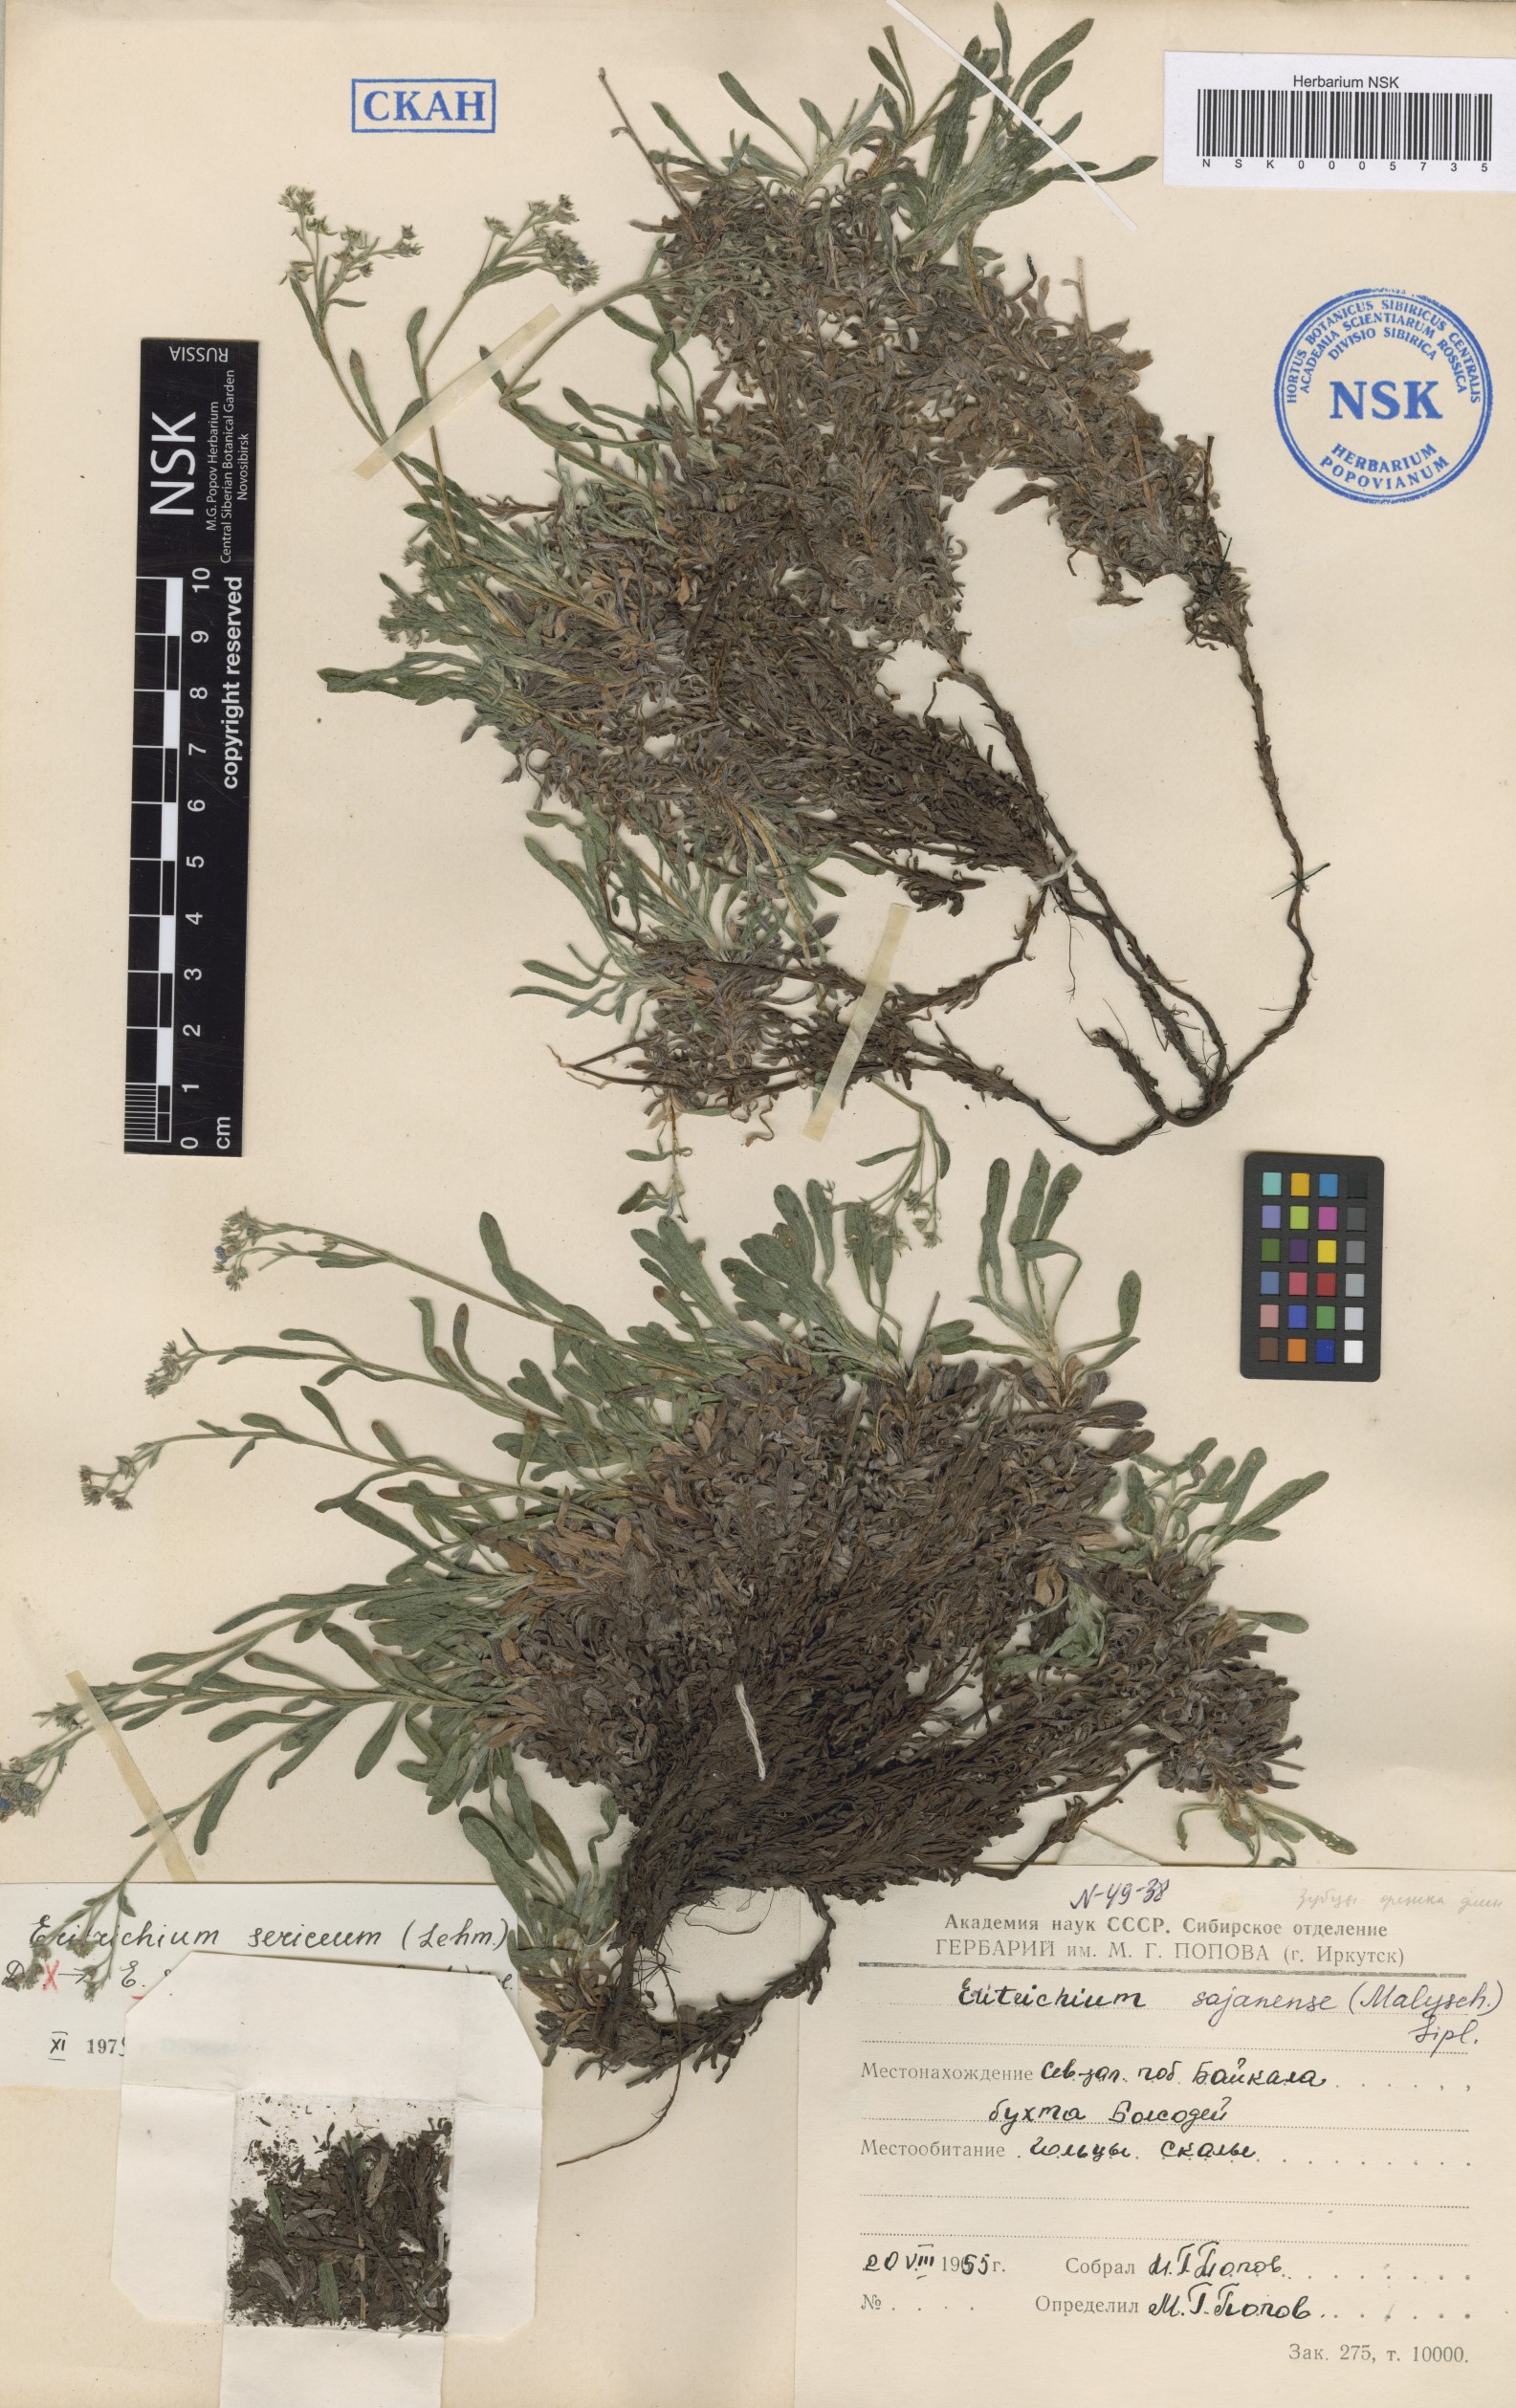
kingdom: Plantae
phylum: Tracheophyta
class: Magnoliopsida
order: Boraginales
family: Boraginaceae
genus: Eritrichium
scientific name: Eritrichium sajanense
